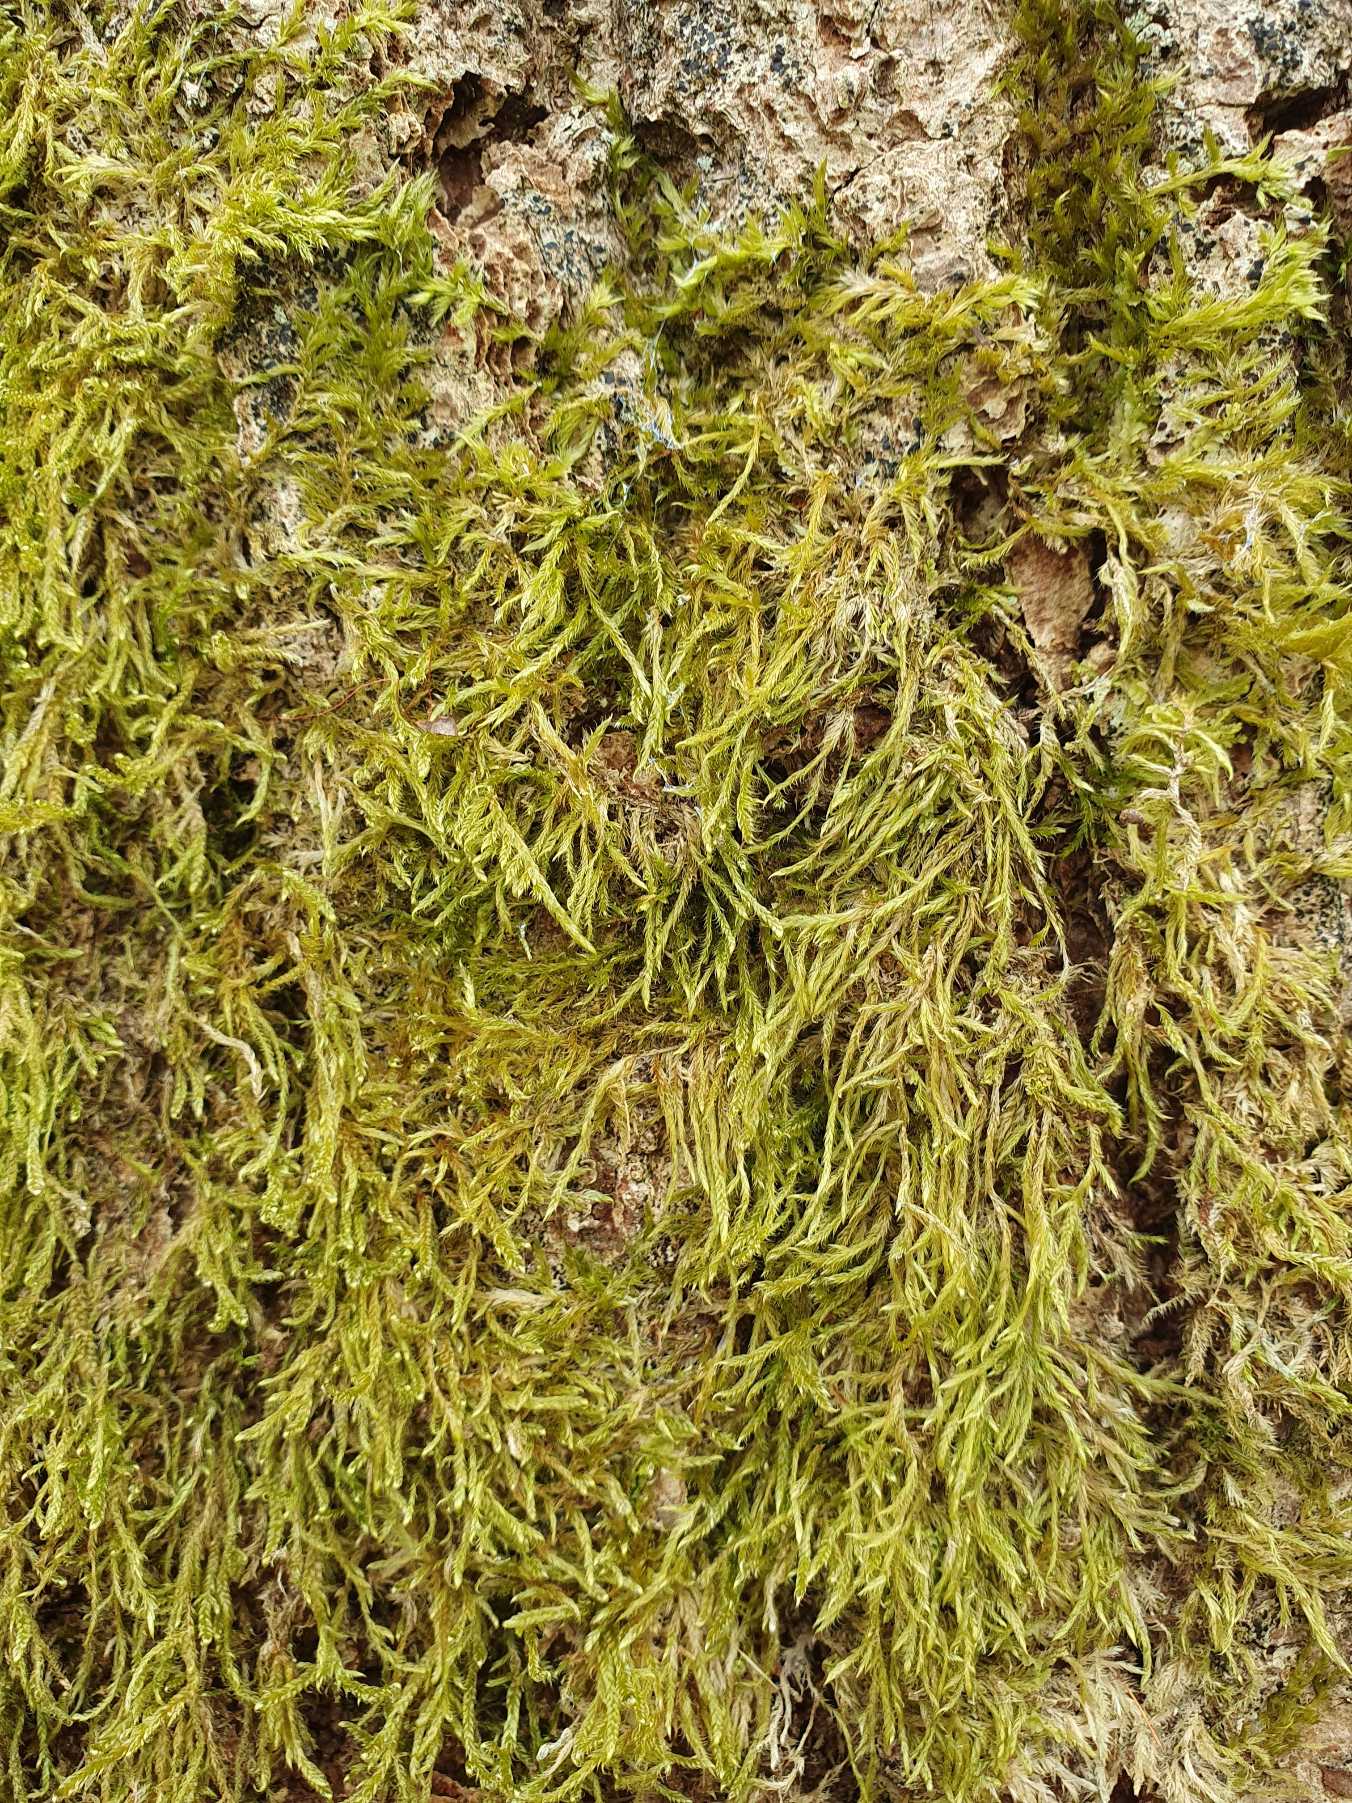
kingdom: Plantae
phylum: Bryophyta
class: Bryopsida
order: Hypnales
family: Hypnaceae
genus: Hypnum
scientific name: Hypnum cupressiforme
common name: Almindelig cypresmos
